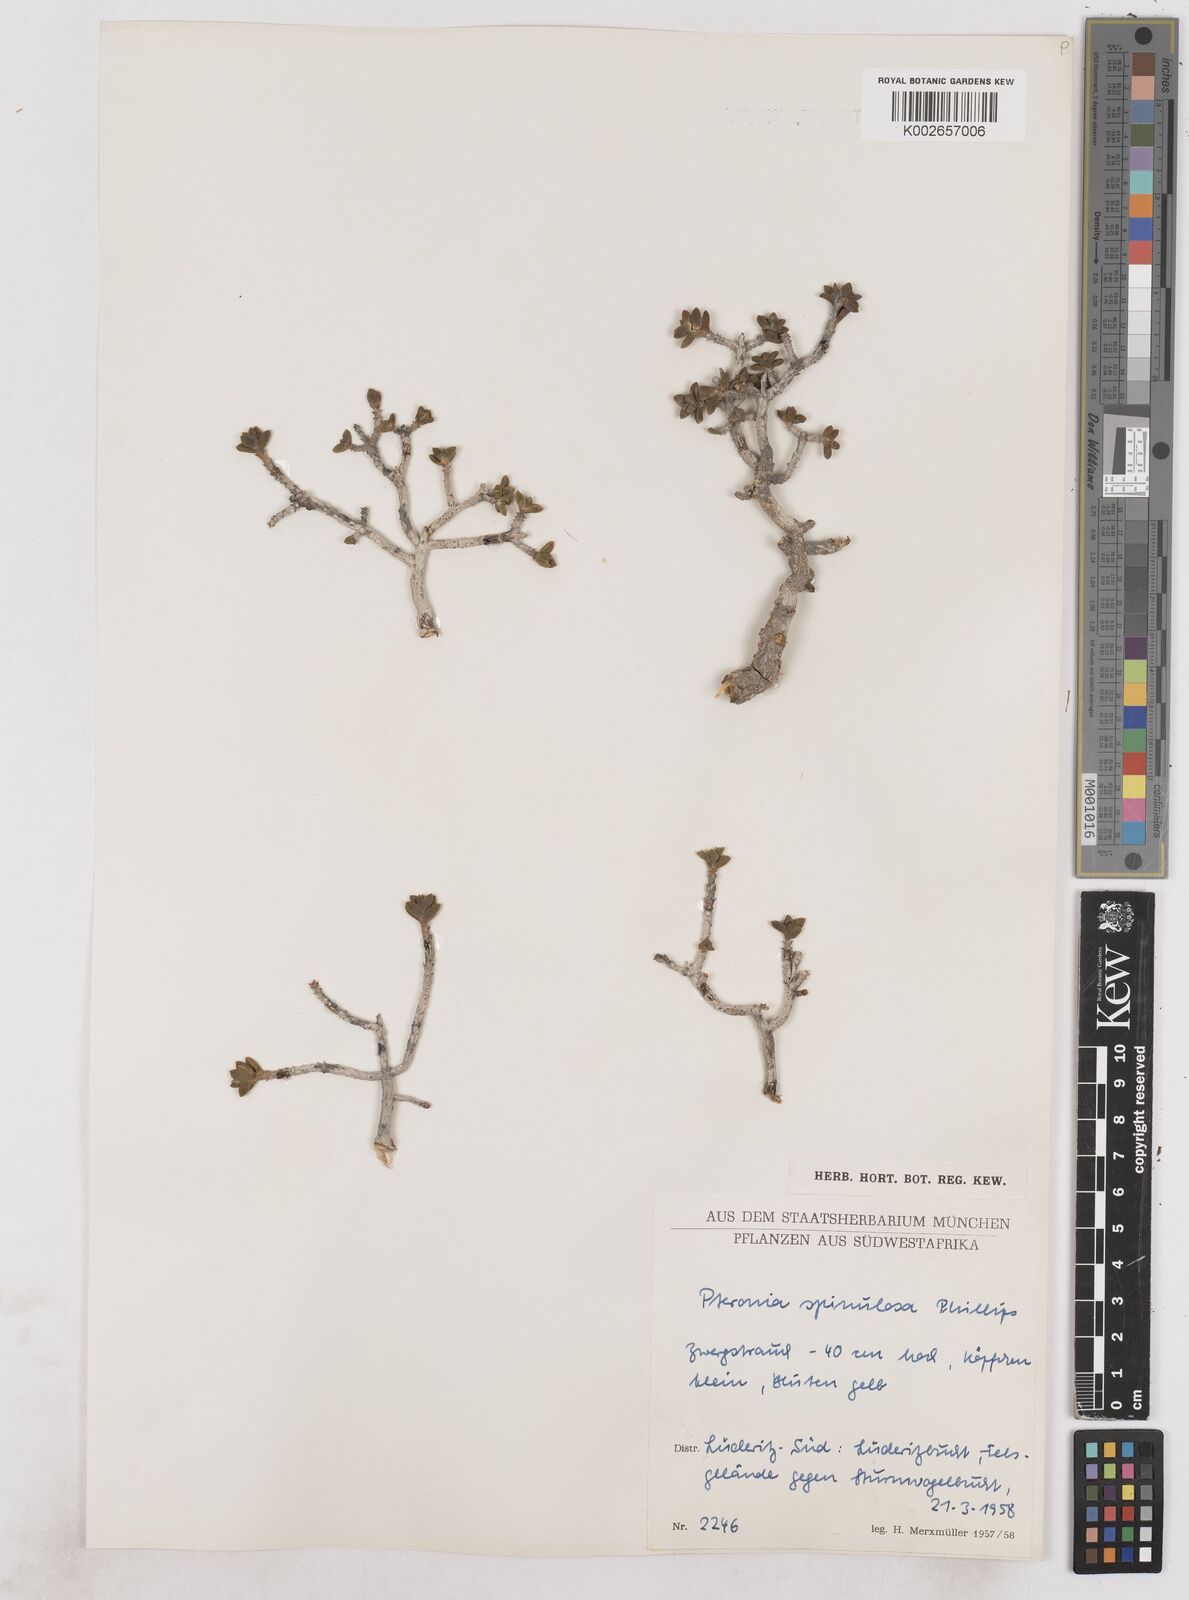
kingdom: Plantae
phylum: Tracheophyta
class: Magnoliopsida
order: Asterales
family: Asteraceae
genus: Pteronia
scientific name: Pteronia spinulosa
